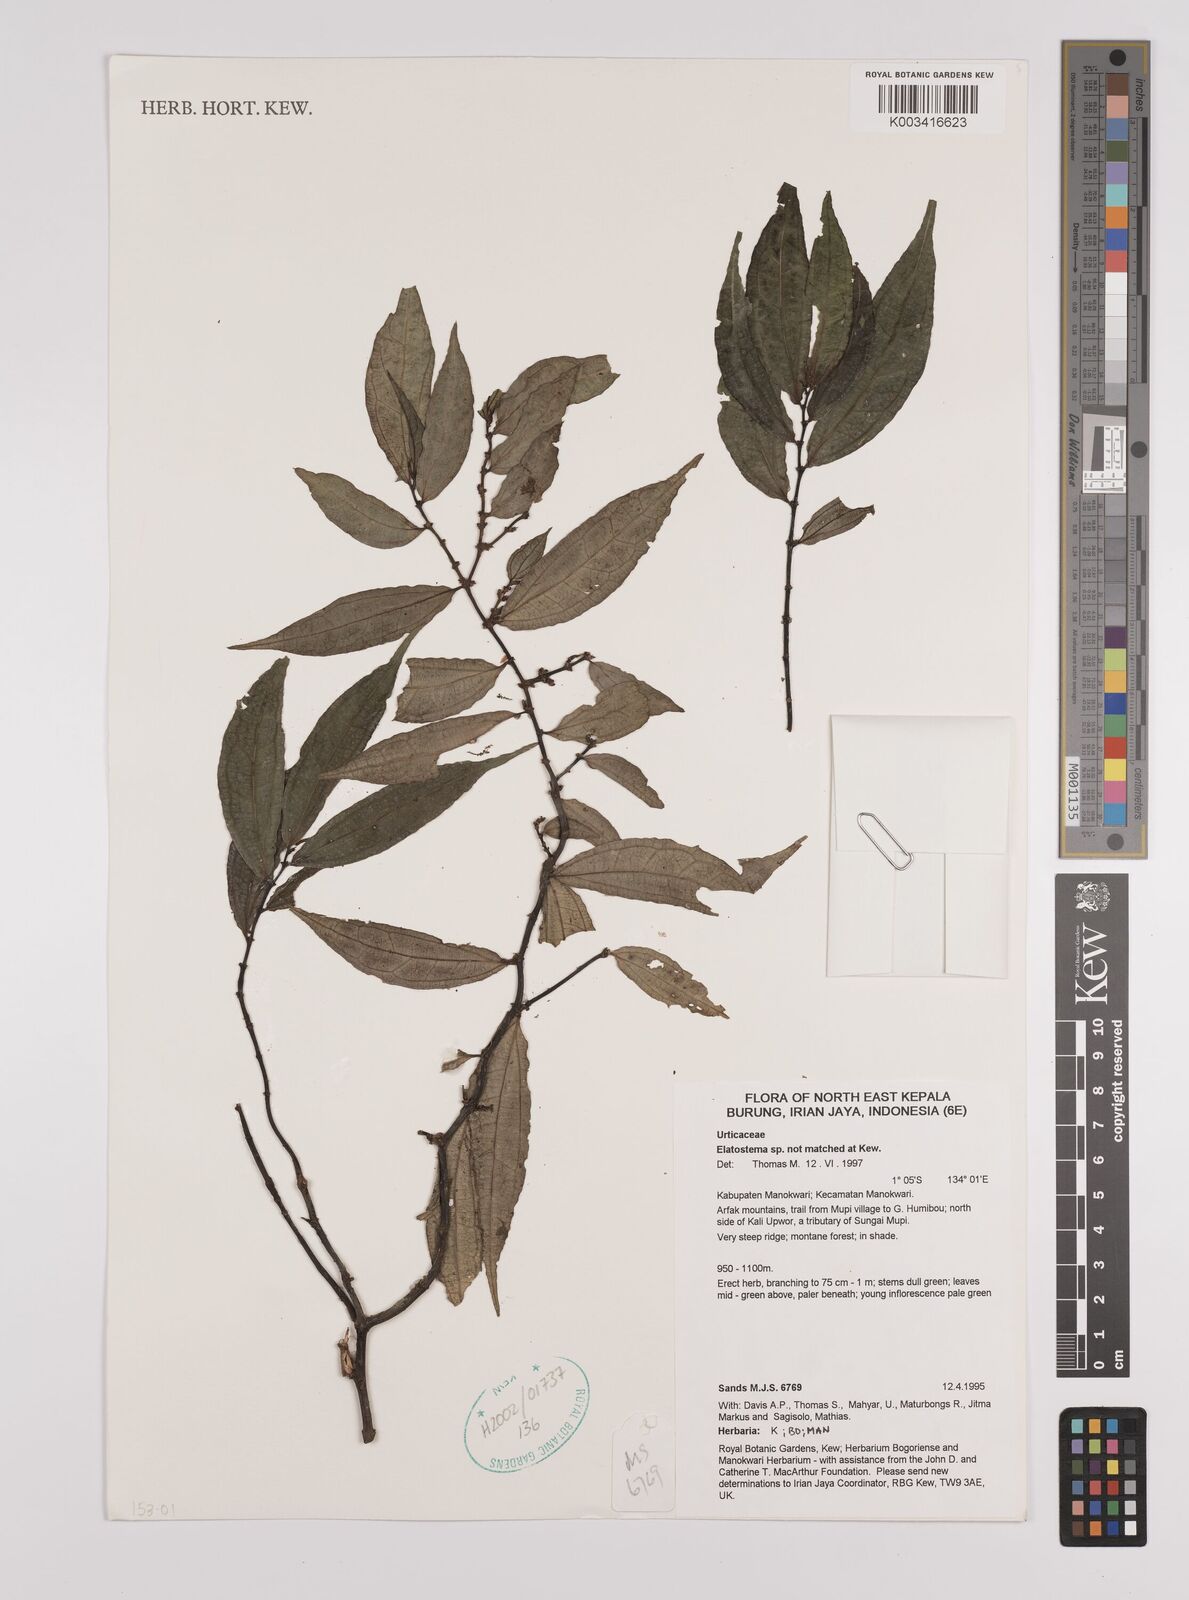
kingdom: Plantae
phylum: Tracheophyta
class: Magnoliopsida
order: Rosales
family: Urticaceae
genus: Elatostema
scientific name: Elatostema
